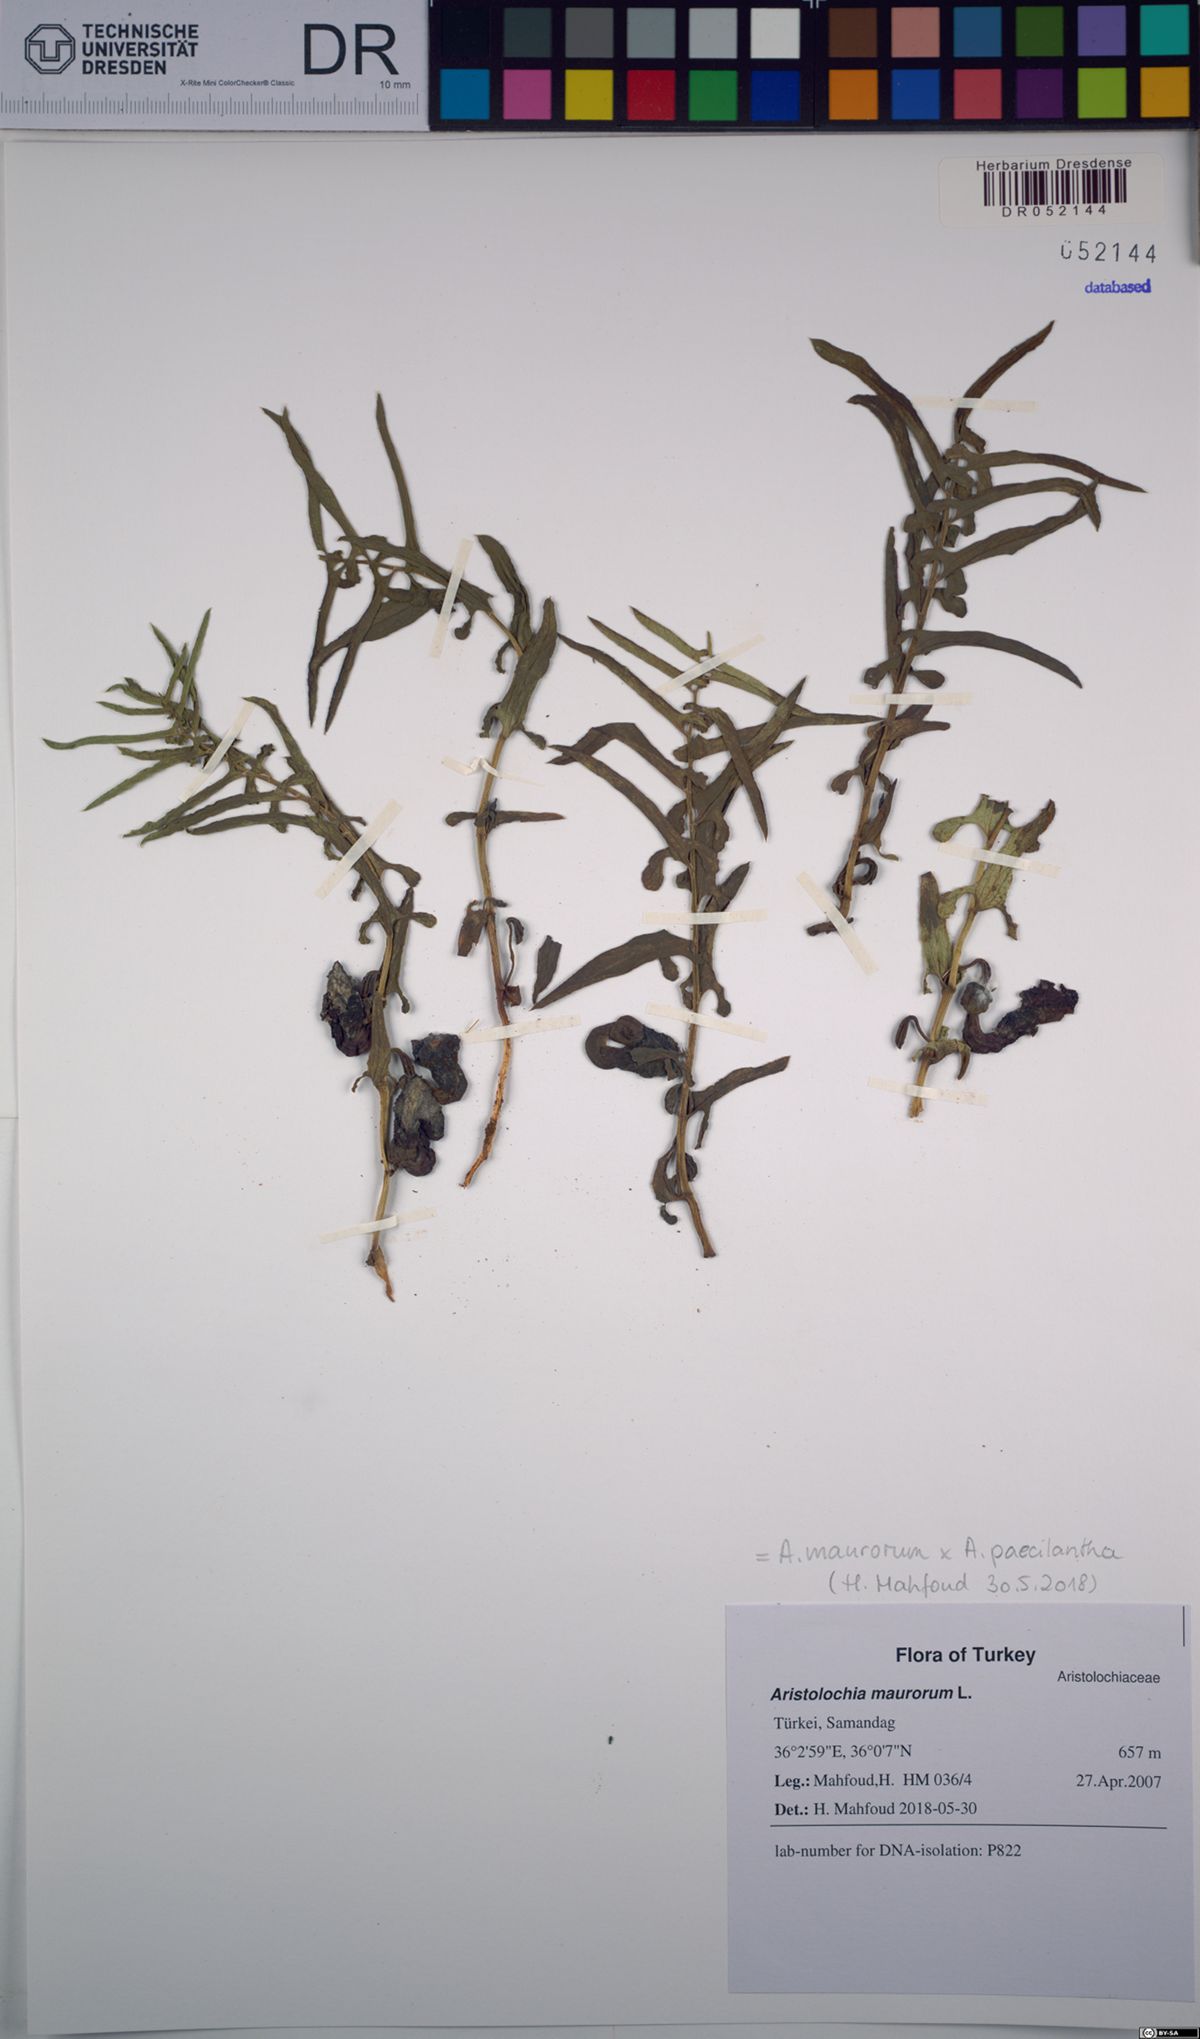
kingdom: Plantae
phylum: Tracheophyta
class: Magnoliopsida
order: Piperales
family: Aristolochiaceae
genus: Aristolochia
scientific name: Aristolochia maurorum
